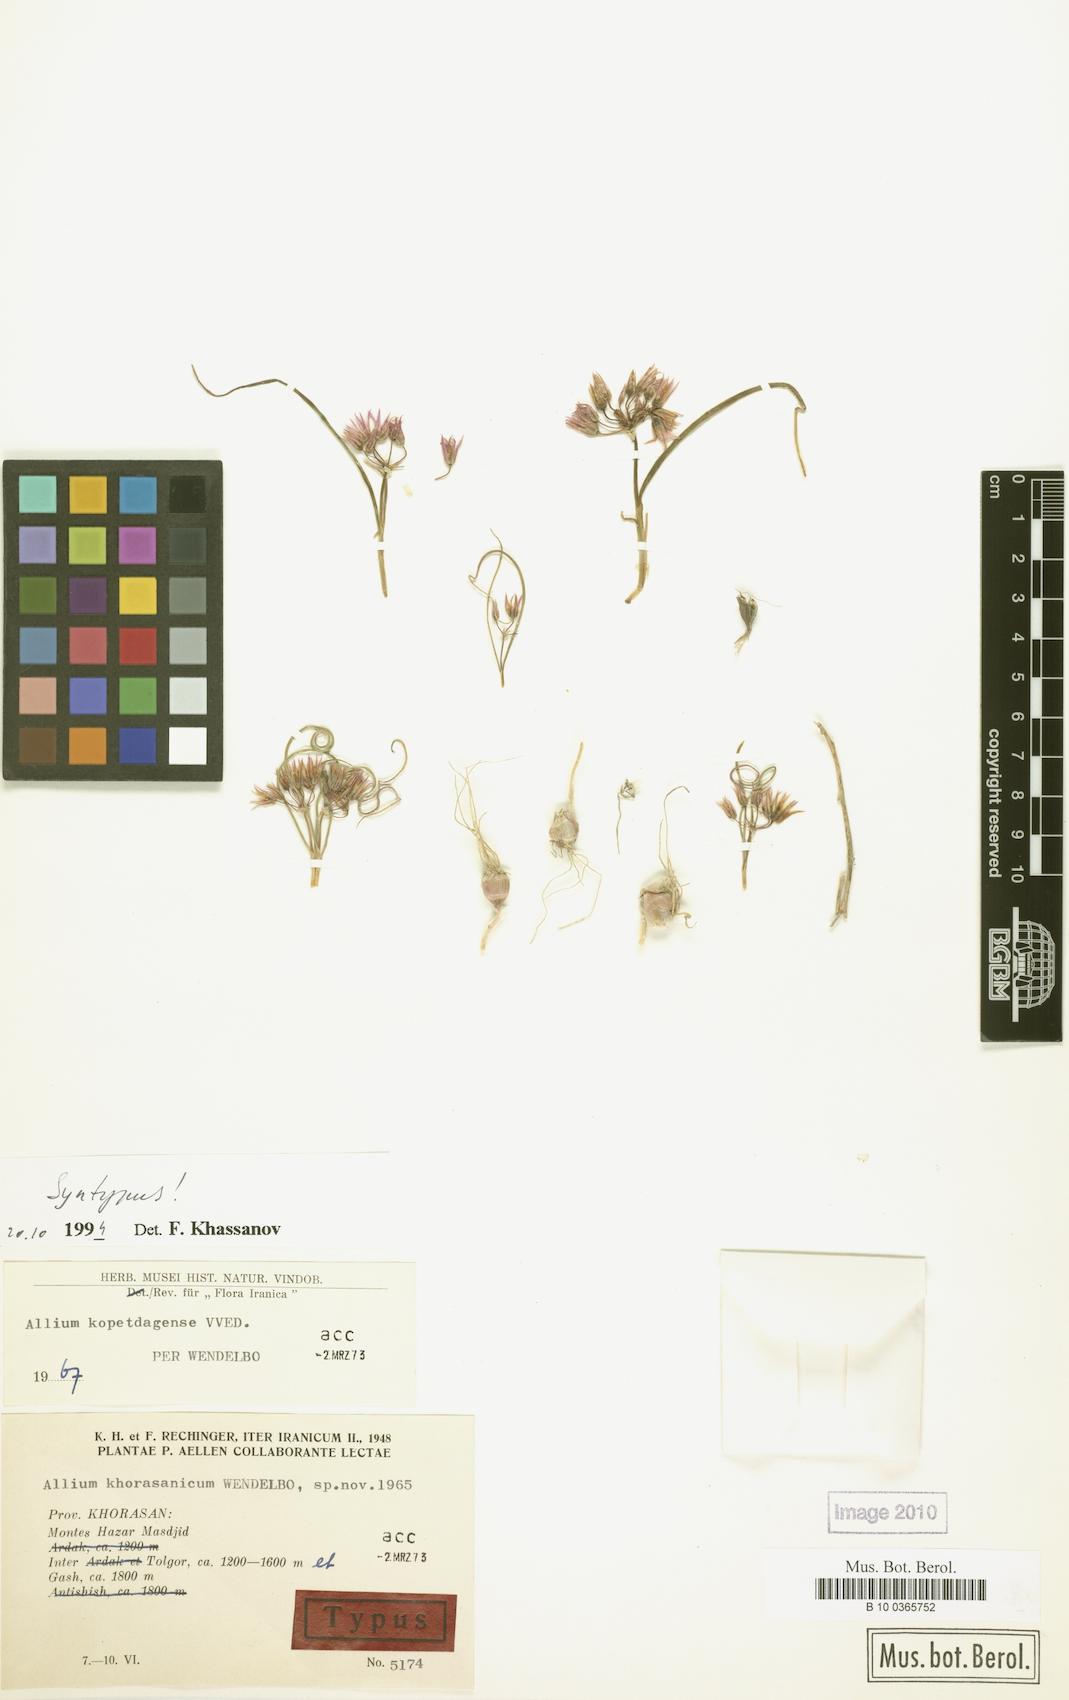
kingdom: Plantae
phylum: Tracheophyta
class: Liliopsida
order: Asparagales
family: Amaryllidaceae
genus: Allium
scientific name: Allium kopetdagense
